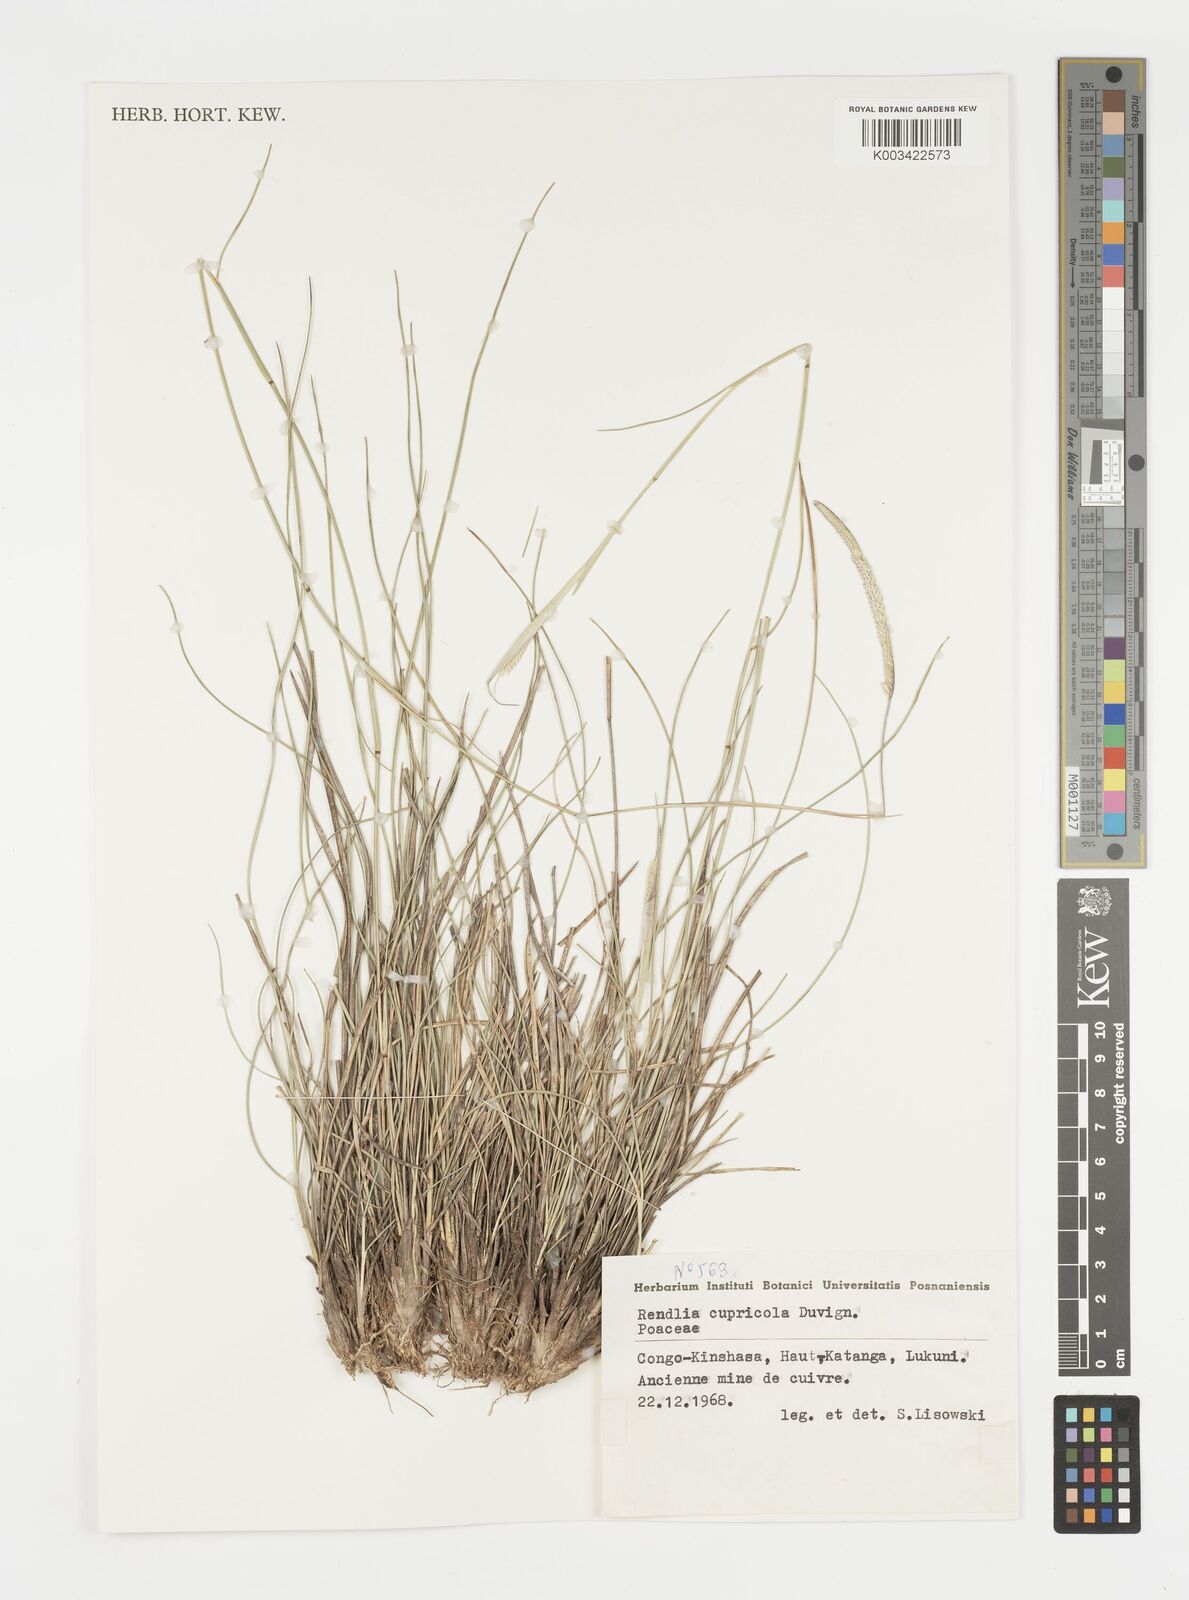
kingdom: Plantae
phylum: Tracheophyta
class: Liliopsida
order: Poales
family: Poaceae
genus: Microchloa
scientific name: Microchloa altera
